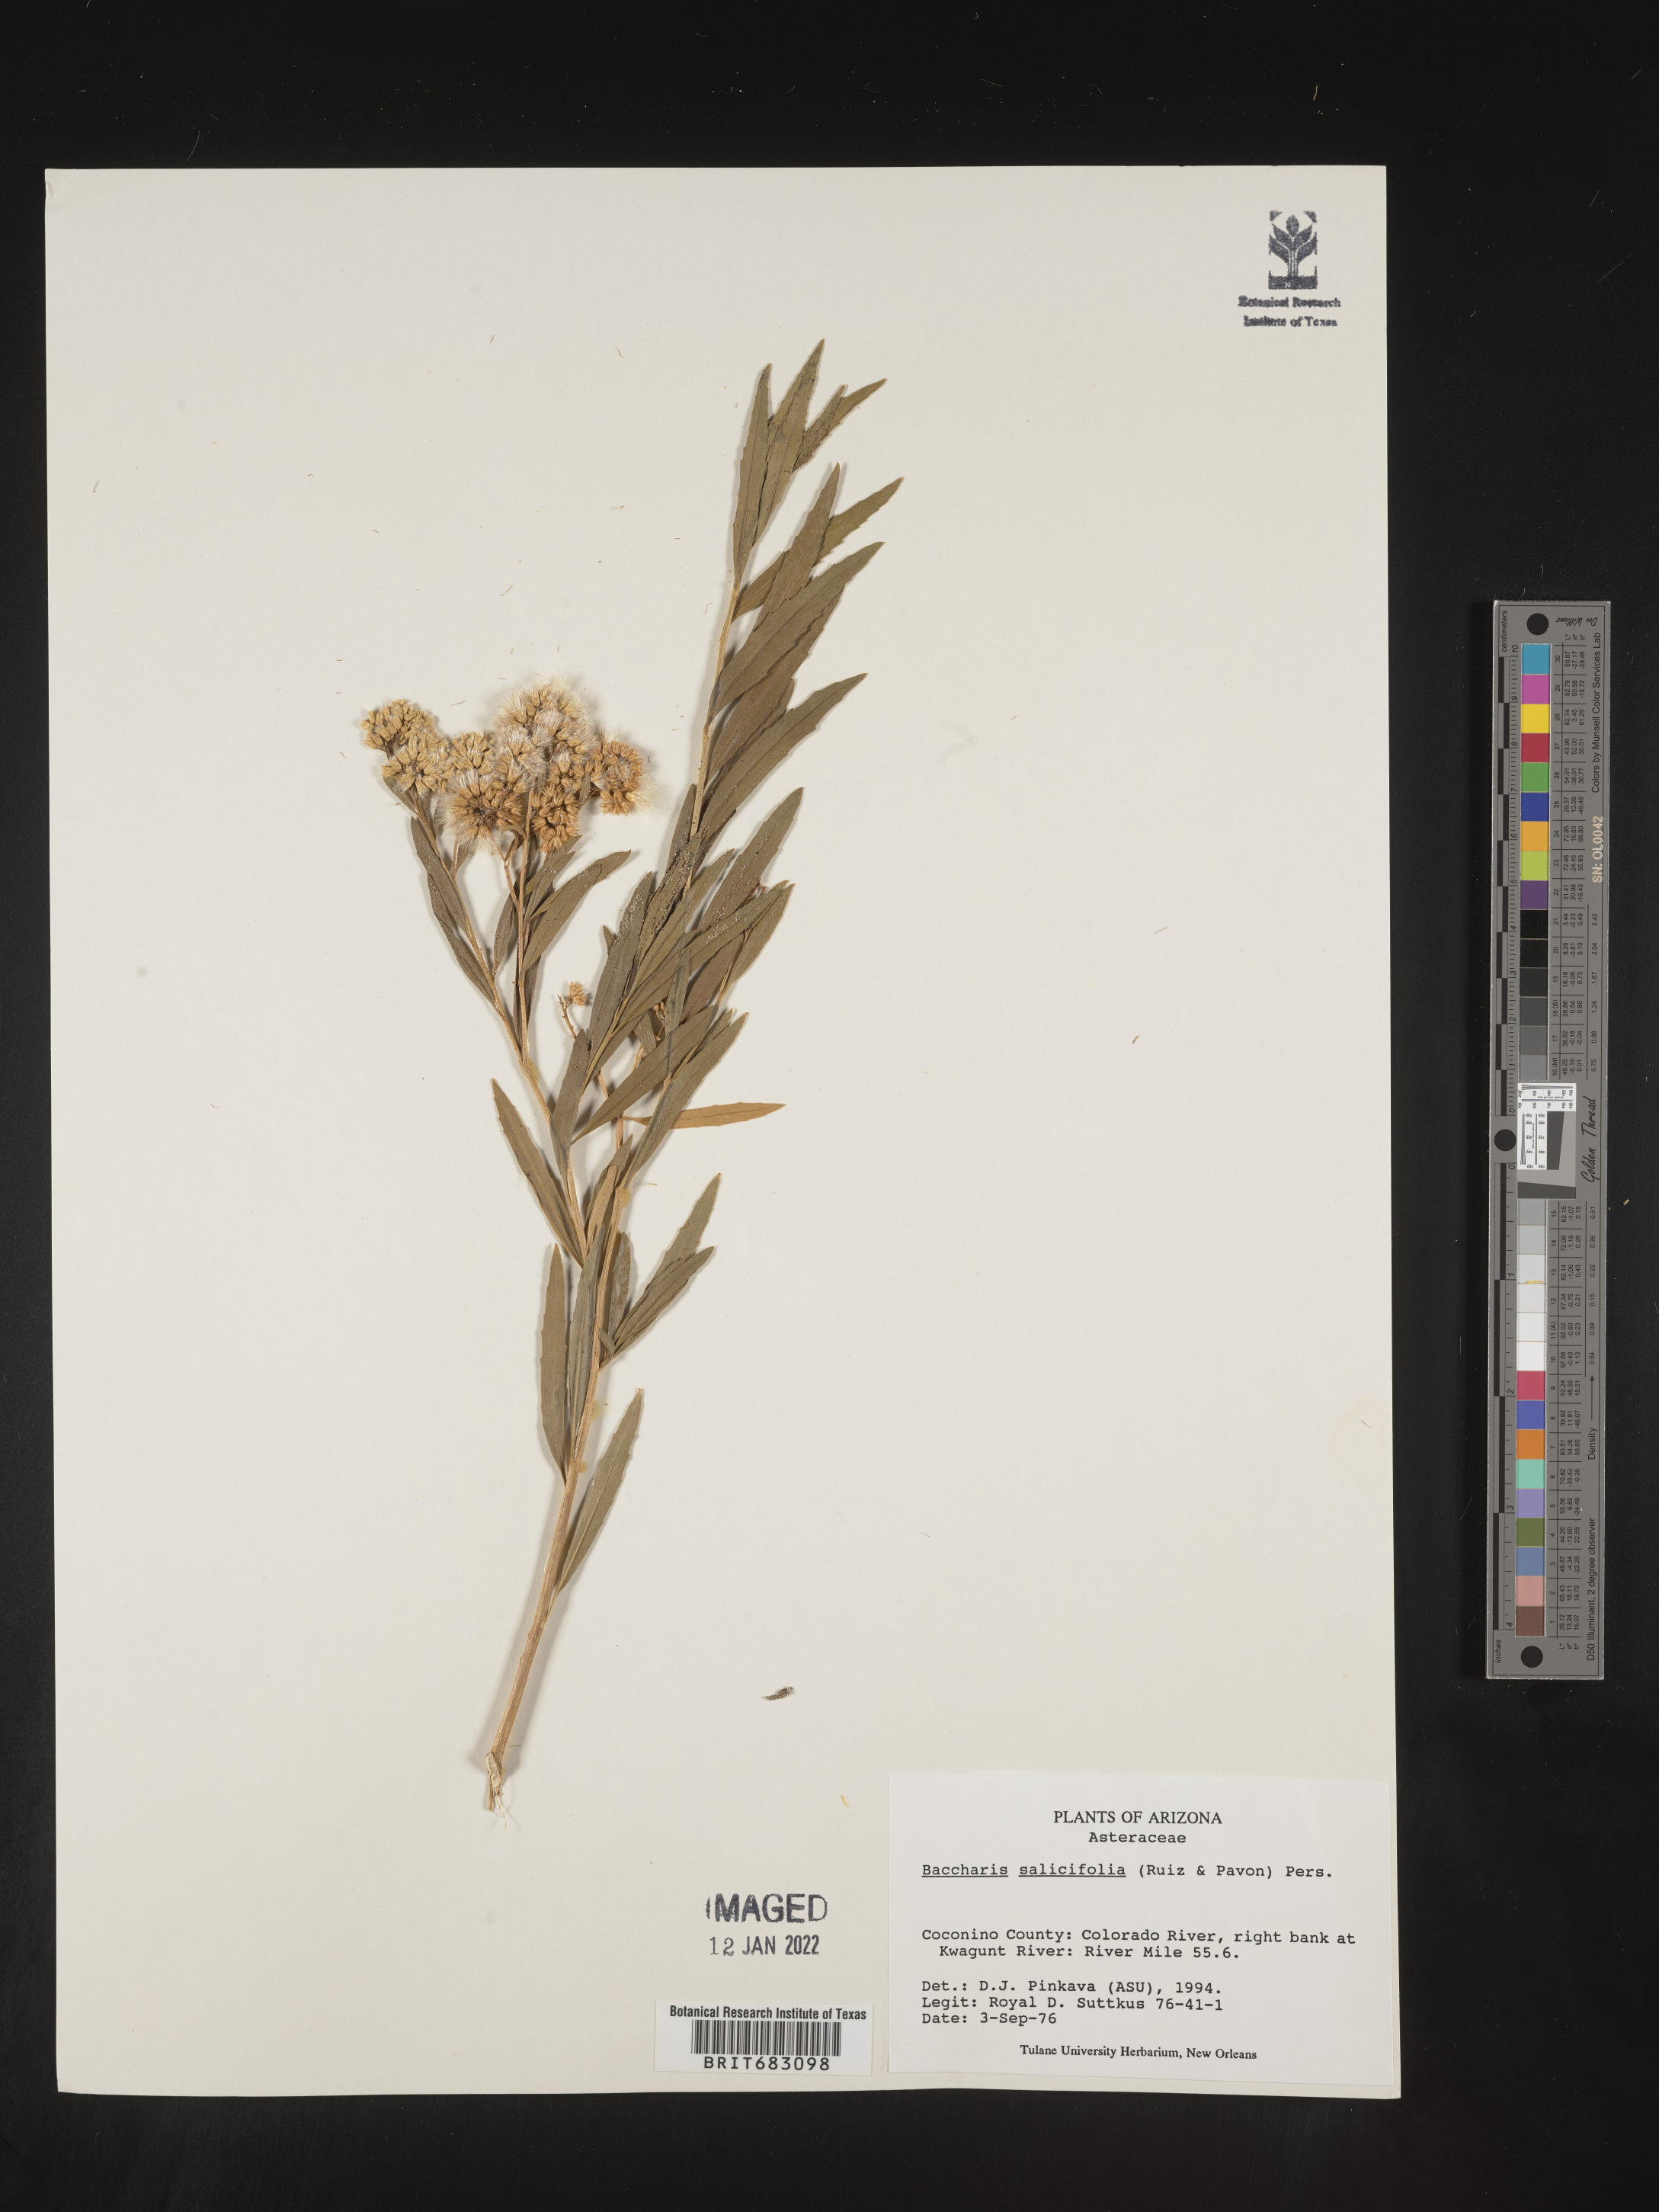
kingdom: Plantae
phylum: Tracheophyta
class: Magnoliopsida
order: Asterales
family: Asteraceae
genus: Baccharis
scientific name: Baccharis salicifolia
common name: Sticky baccharis
